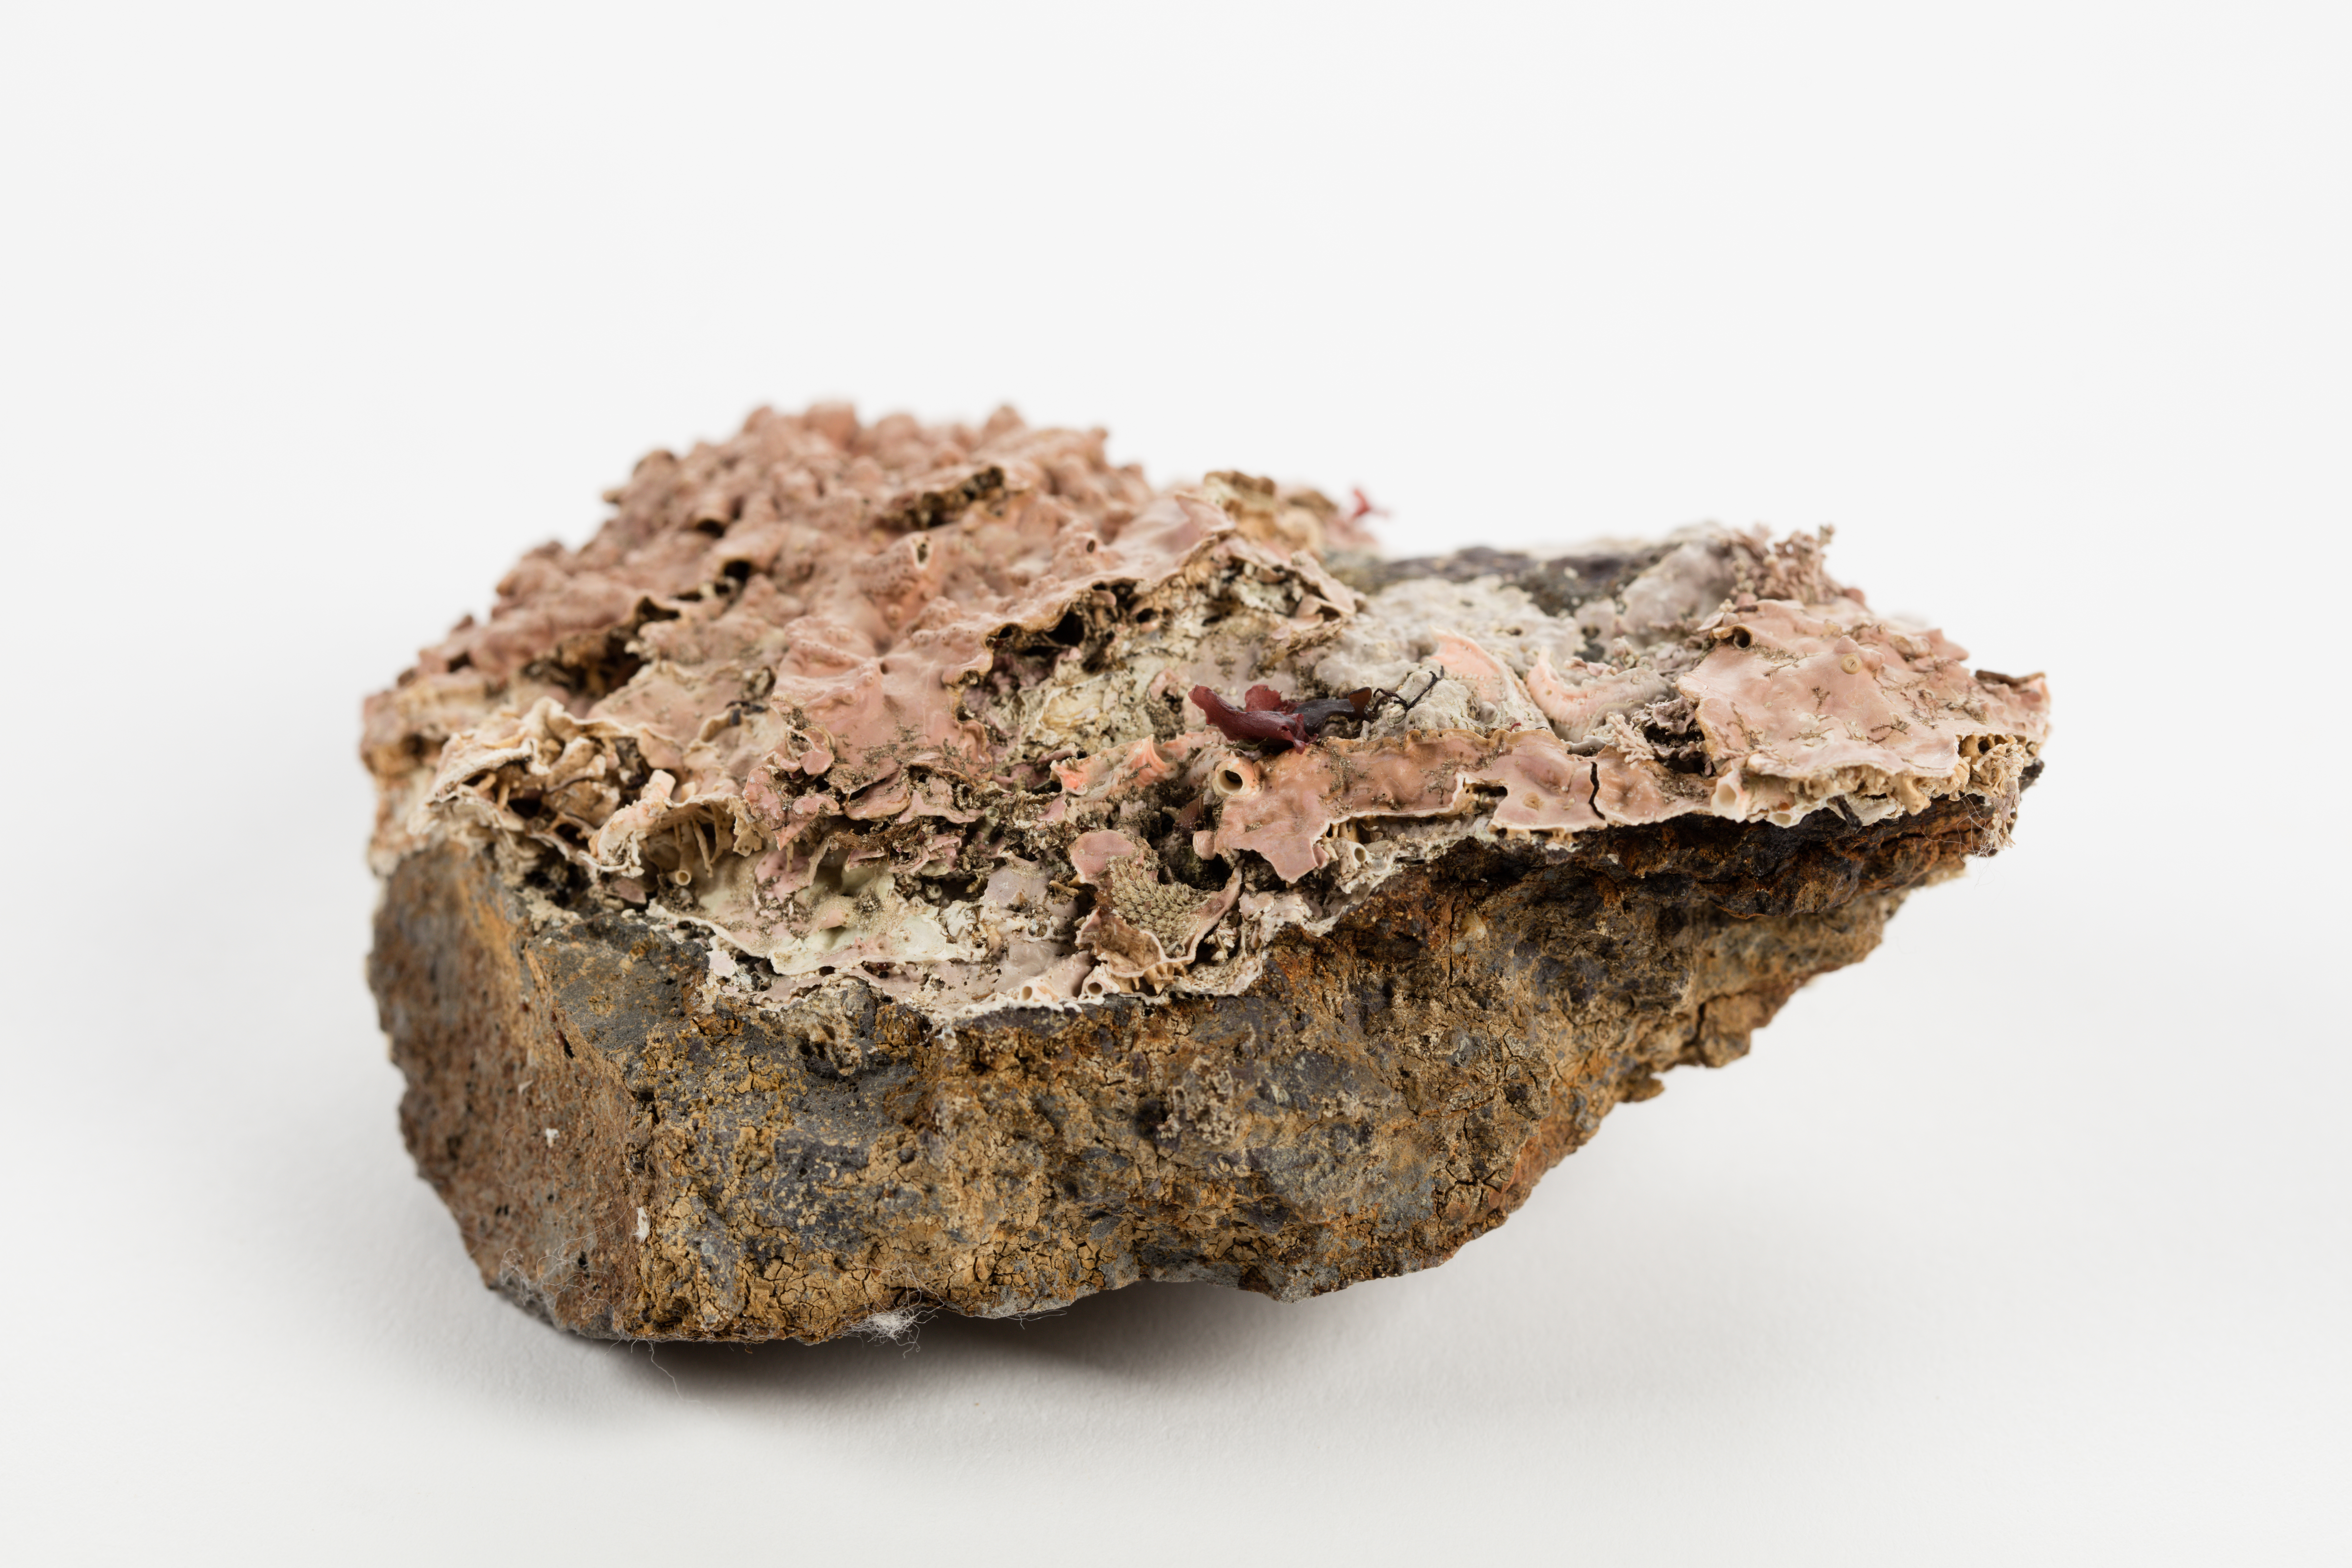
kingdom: Plantae
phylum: Rhodophyta
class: Florideophyceae
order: Corallinales
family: Hapalidiaceae
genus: Lithothamnion
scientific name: Lithothamnion
